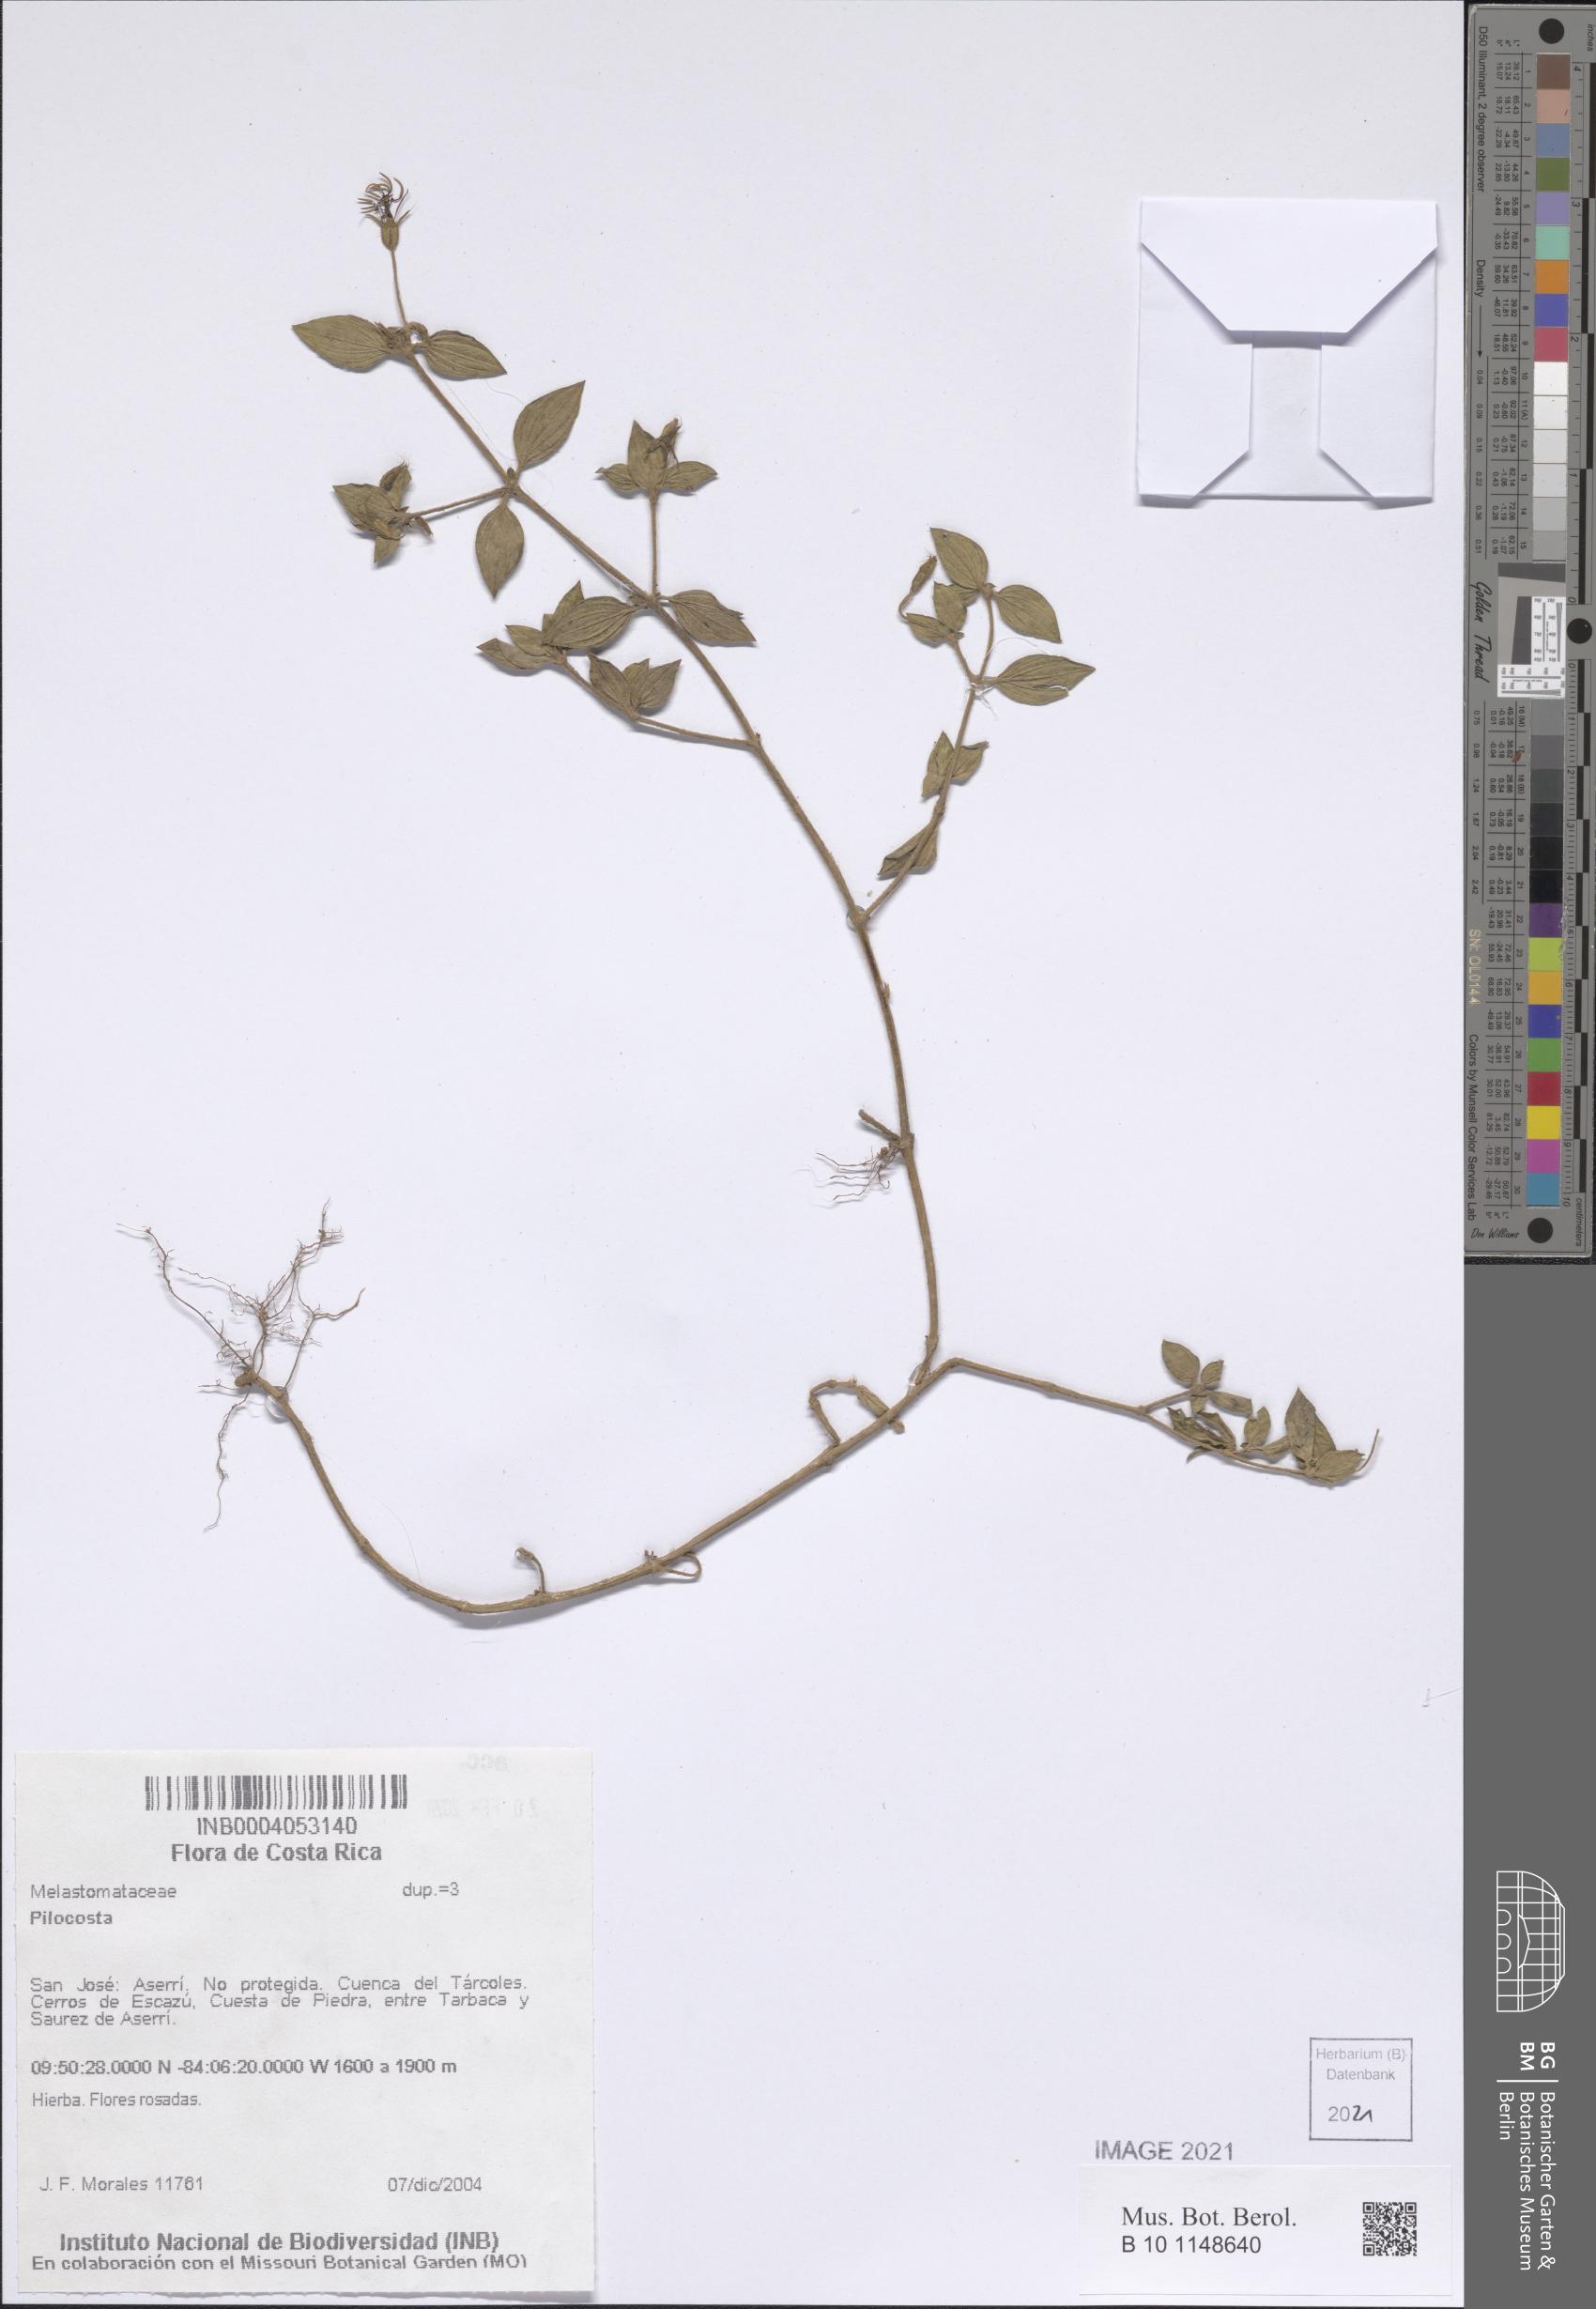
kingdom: Plantae
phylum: Tracheophyta
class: Magnoliopsida
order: Myrtales
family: Melastomataceae
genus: Pilocosta
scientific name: Pilocosta
